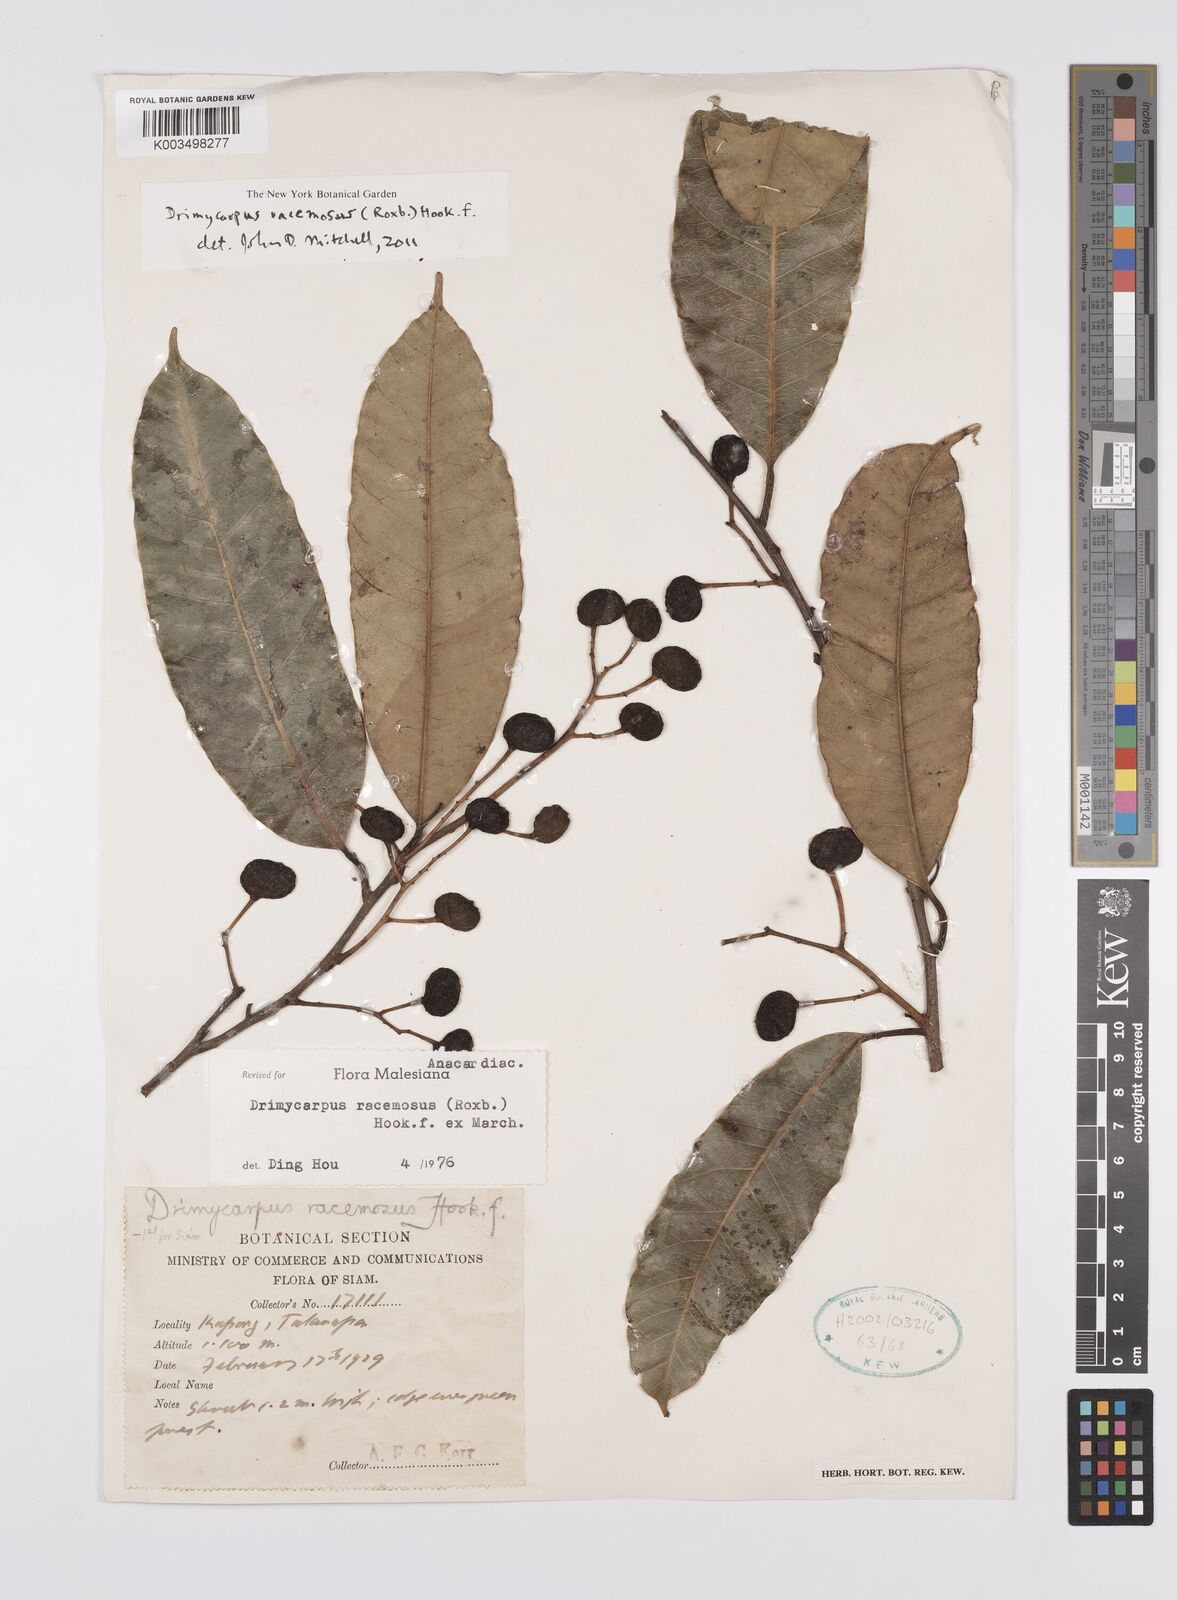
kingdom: Plantae
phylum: Tracheophyta
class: Magnoliopsida
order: Sapindales
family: Anacardiaceae
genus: Drimycarpus
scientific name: Drimycarpus racemosus
